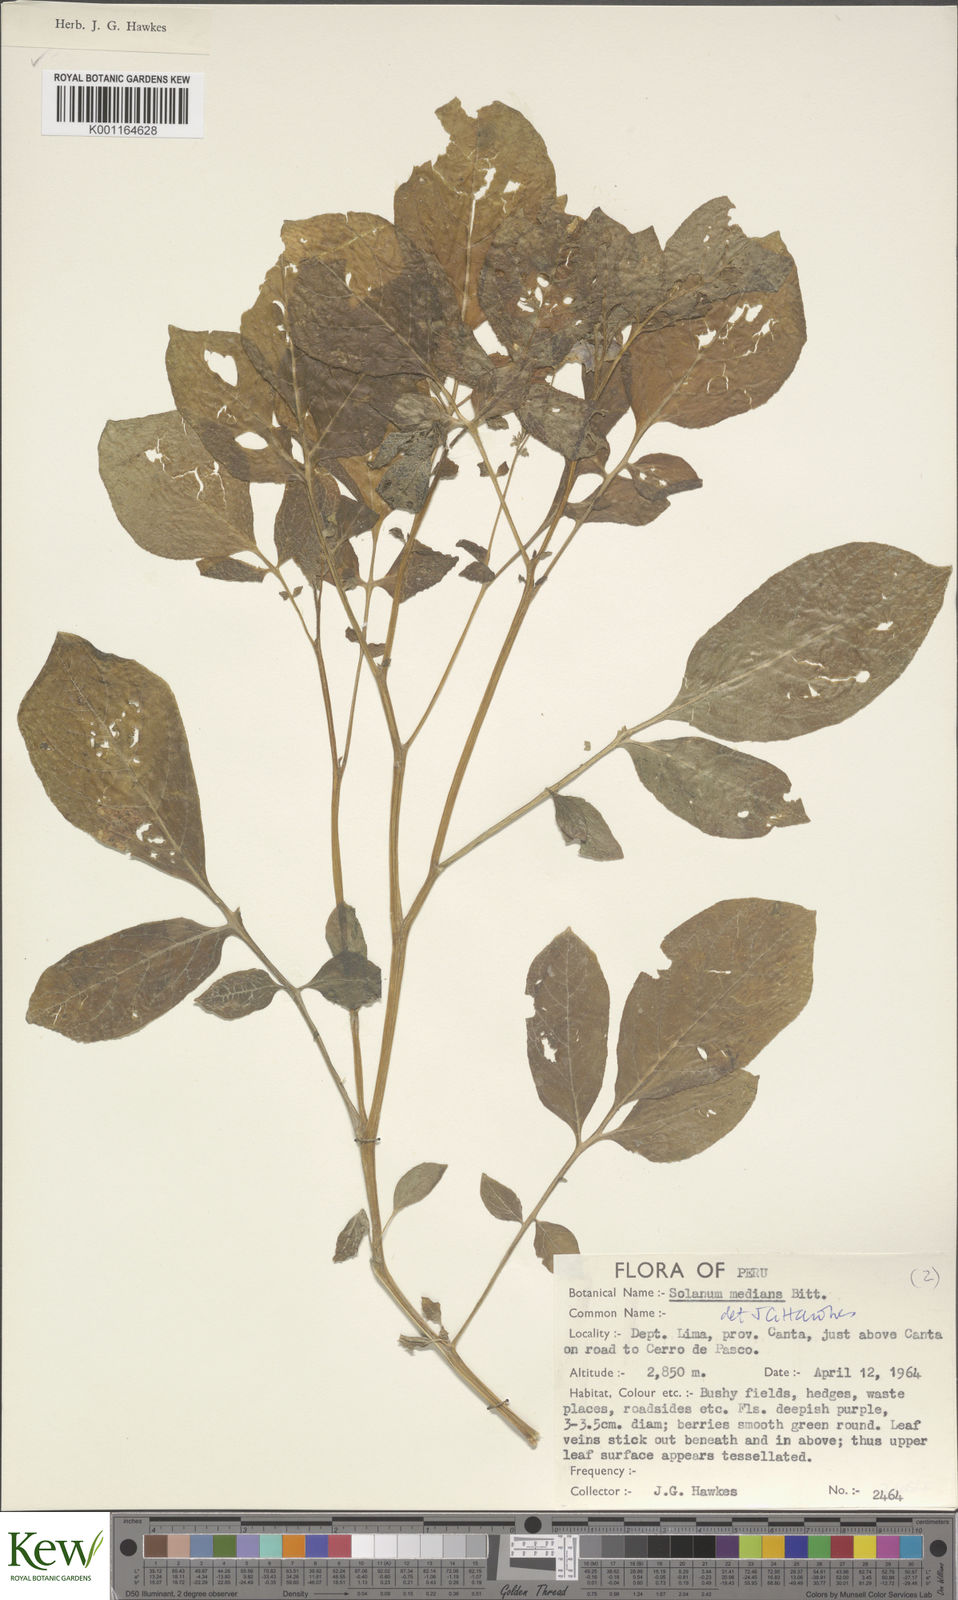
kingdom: Plantae
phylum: Tracheophyta
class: Magnoliopsida
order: Solanales
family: Solanaceae
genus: Solanum
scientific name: Solanum medians
